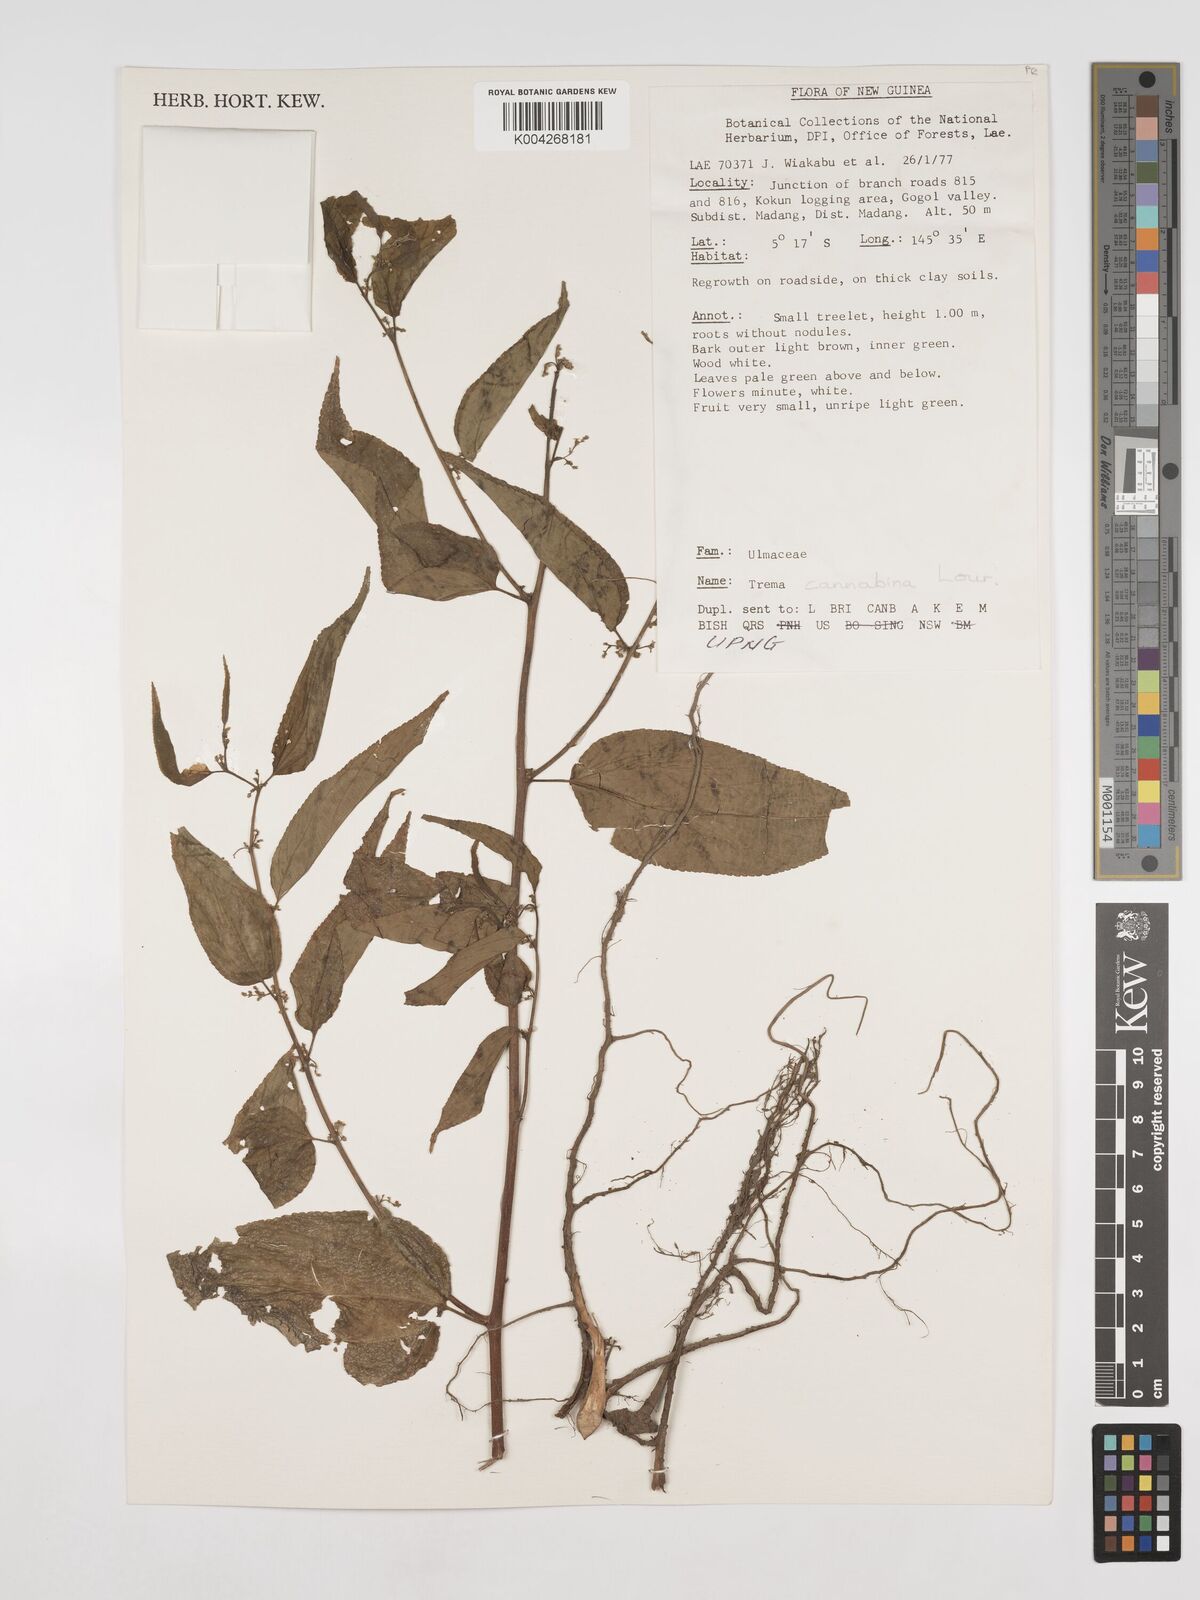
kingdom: Plantae
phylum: Tracheophyta
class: Magnoliopsida
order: Rosales
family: Cannabaceae
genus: Trema
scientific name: Trema
